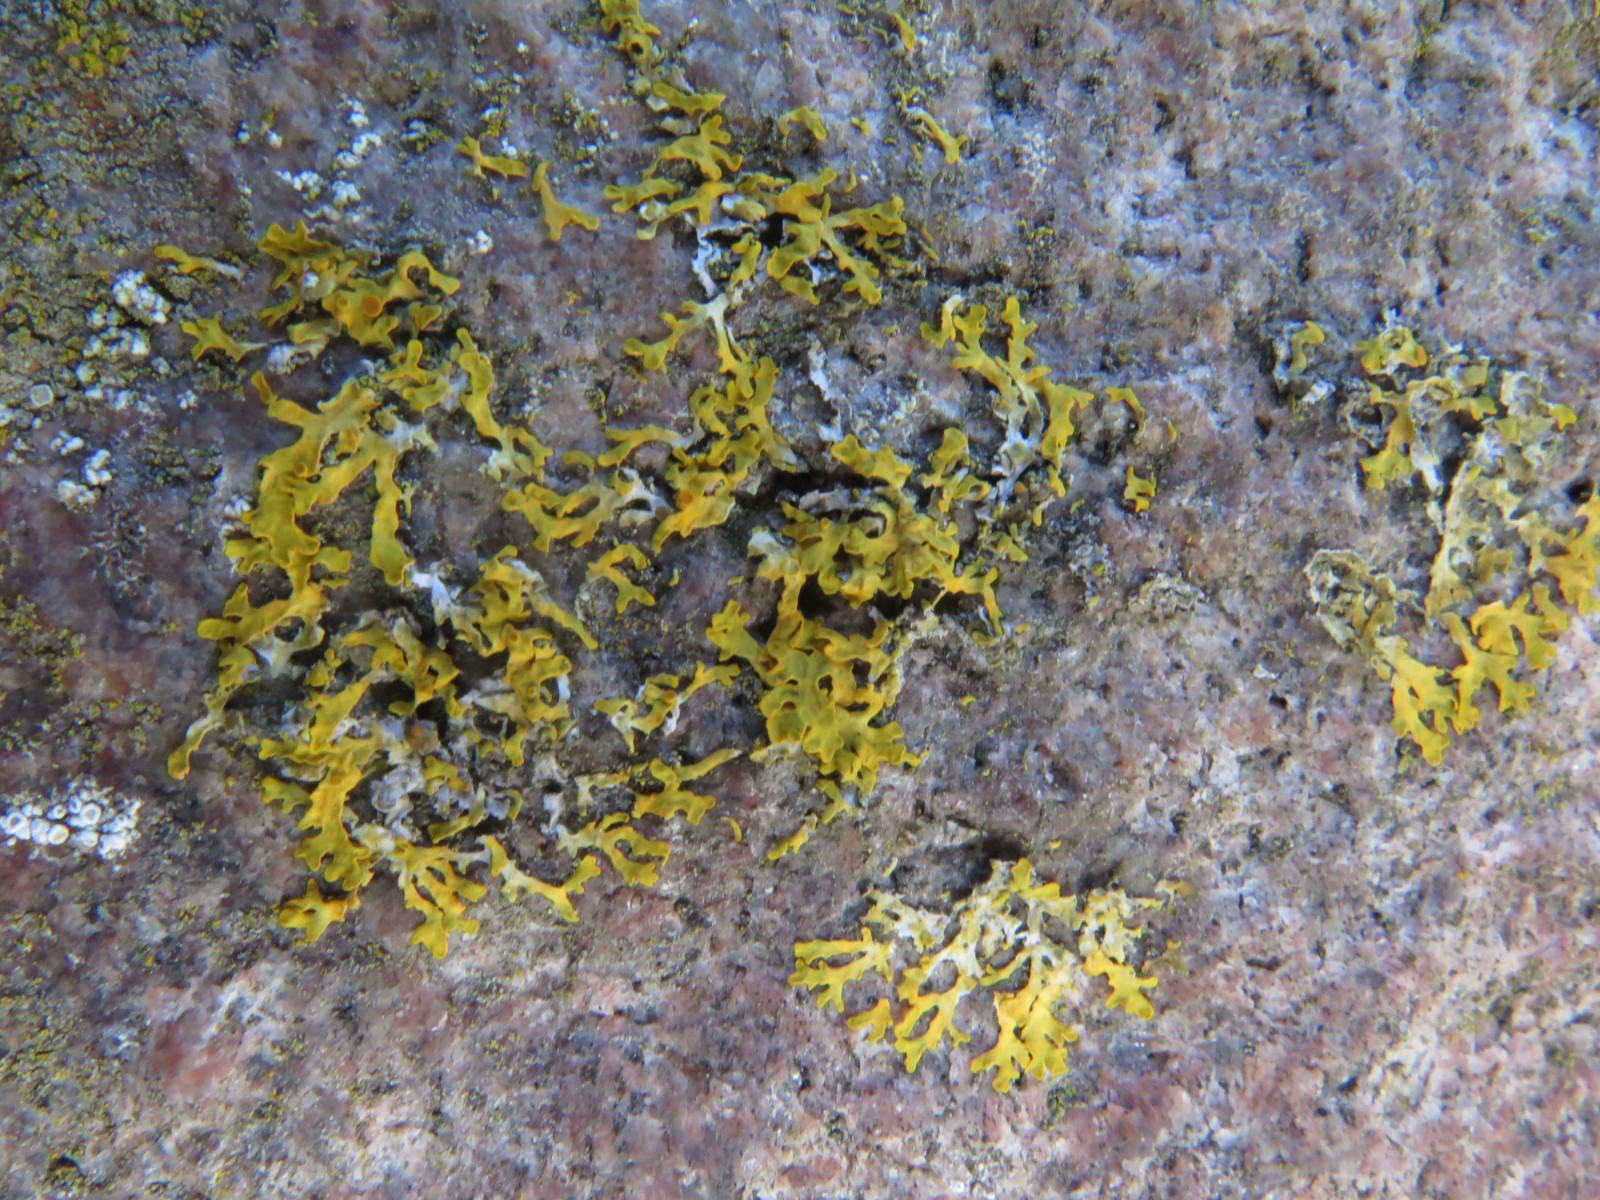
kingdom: Fungi
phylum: Ascomycota
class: Lecanoromycetes
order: Teloschistales
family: Teloschistaceae
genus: Xanthoria
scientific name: Xanthoria
